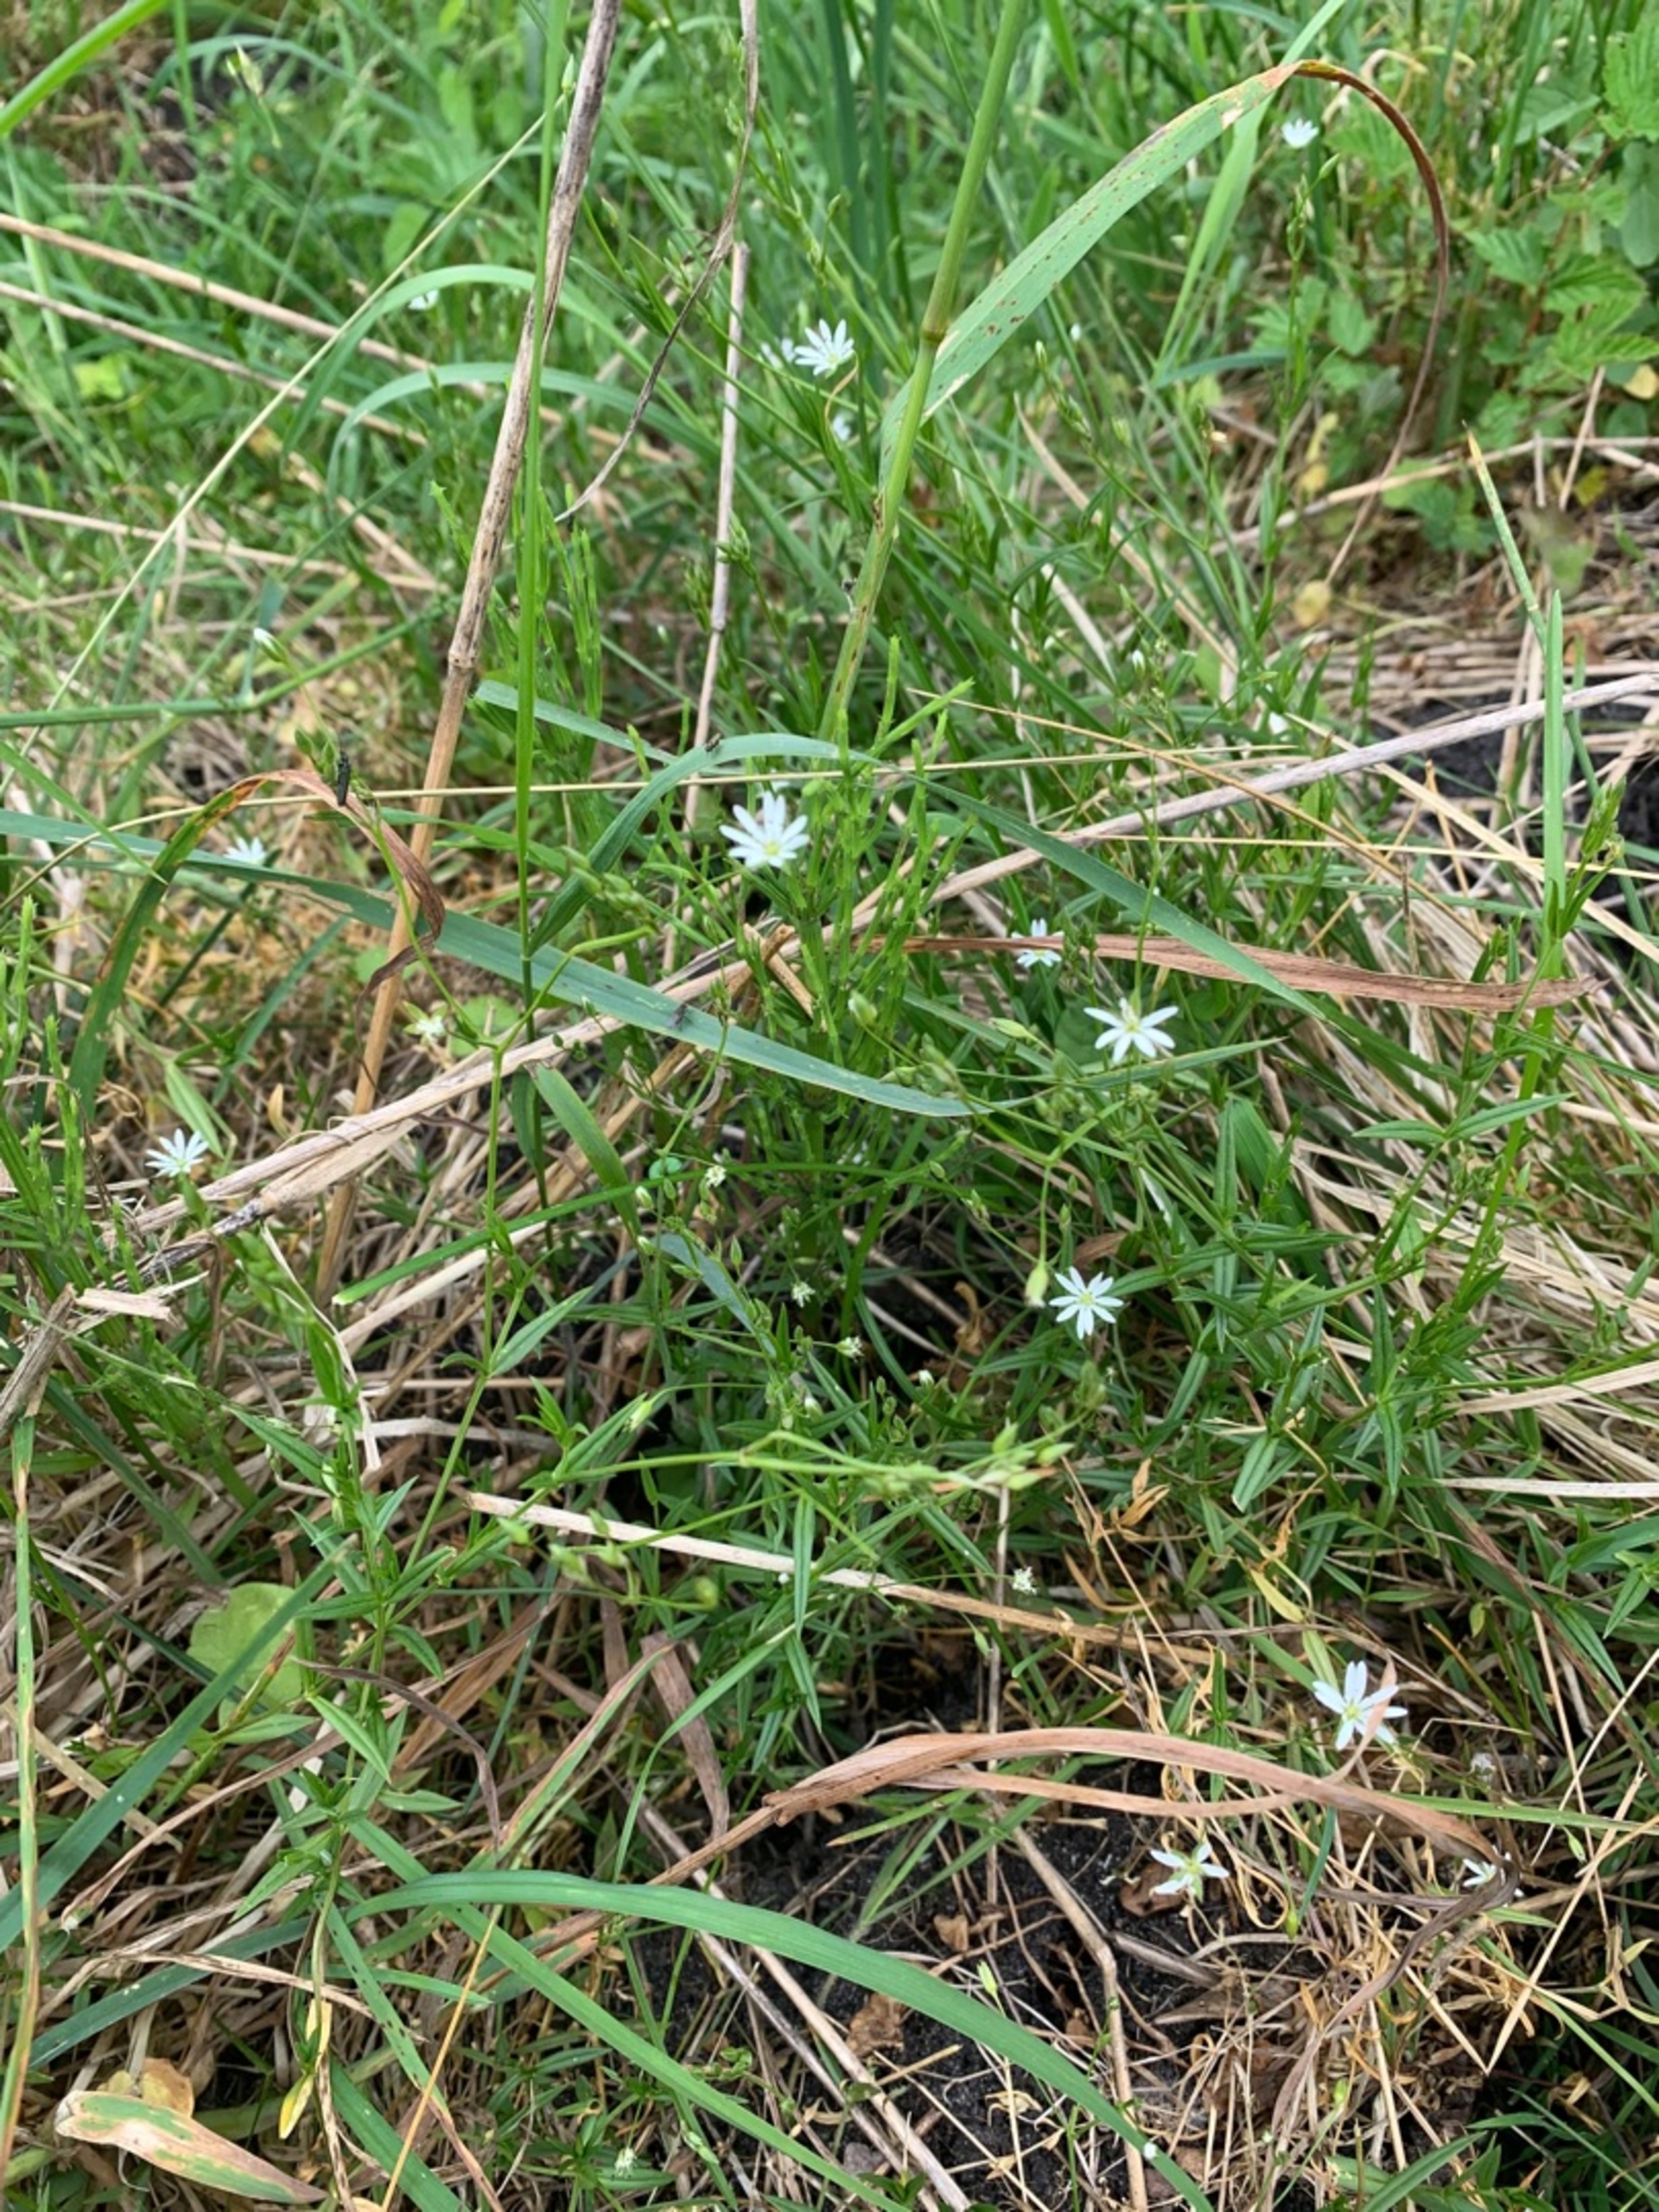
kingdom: Plantae
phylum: Tracheophyta
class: Magnoliopsida
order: Caryophyllales
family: Caryophyllaceae
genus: Stellaria
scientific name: Stellaria graminea
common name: Græsbladet fladstjerne
